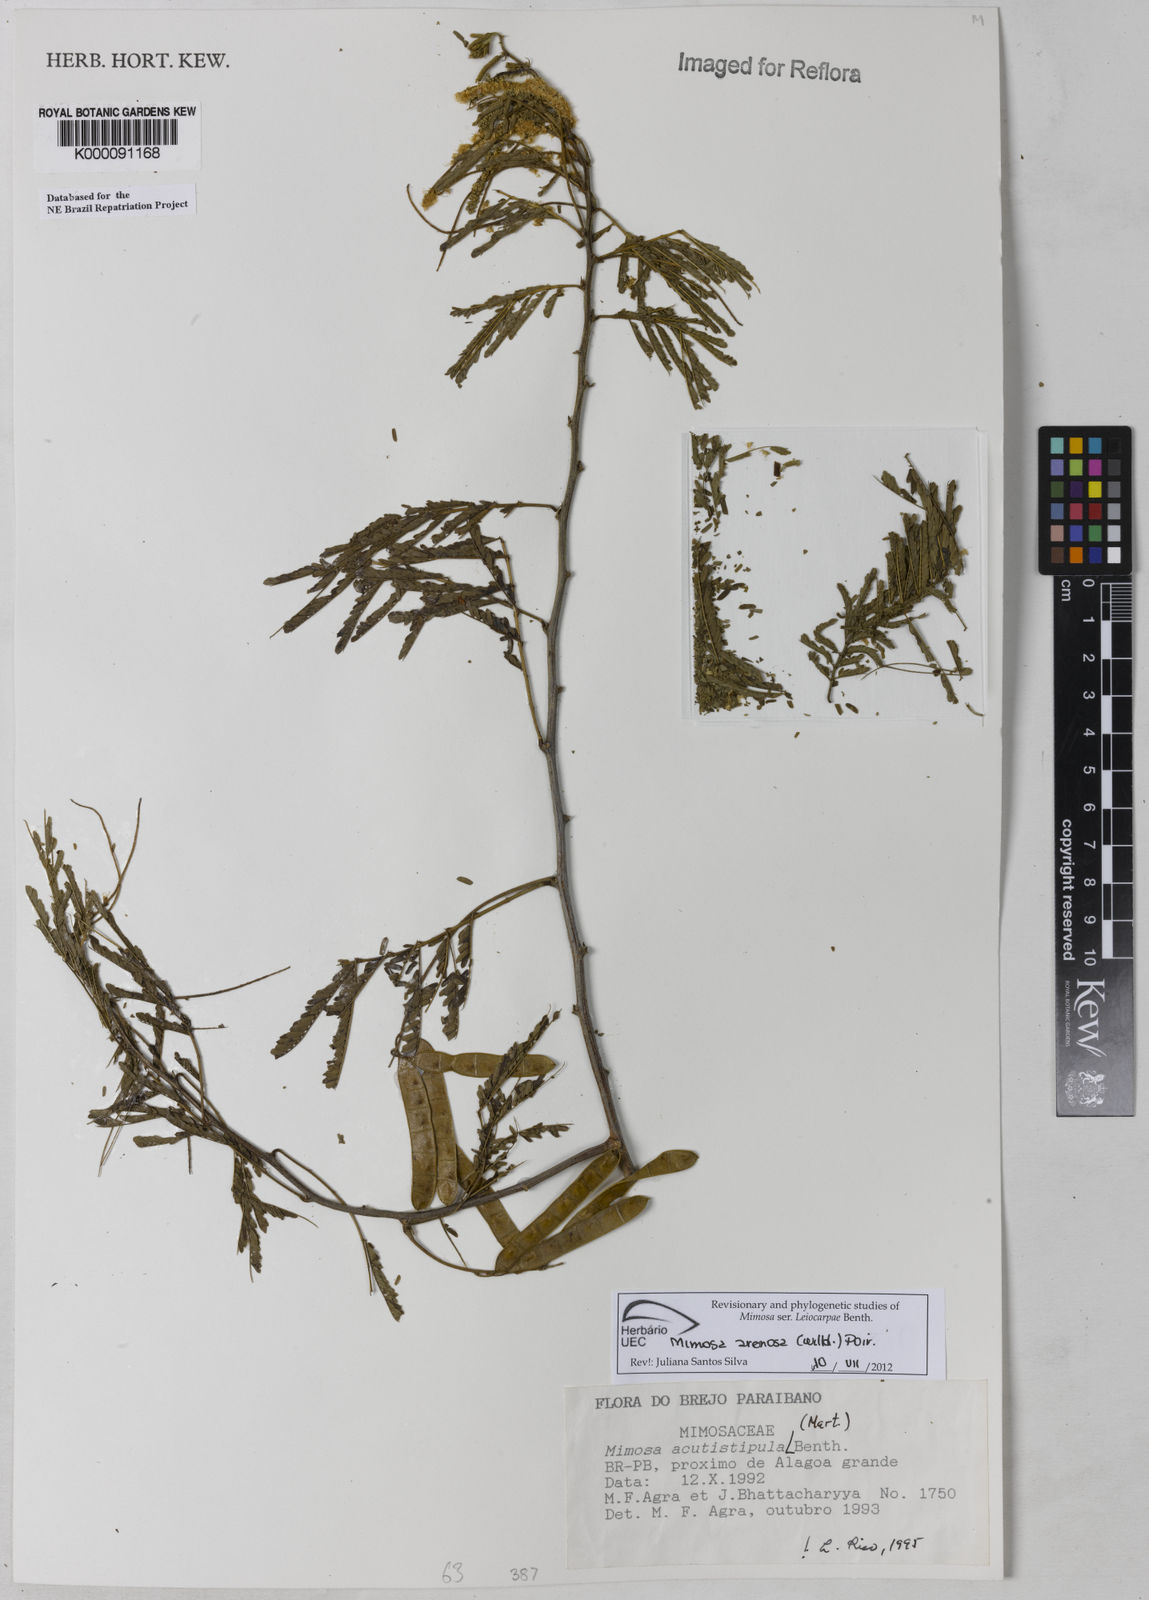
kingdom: Plantae
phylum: Tracheophyta
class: Magnoliopsida
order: Fabales
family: Fabaceae
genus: Mimosa
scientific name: Mimosa acutistipula
